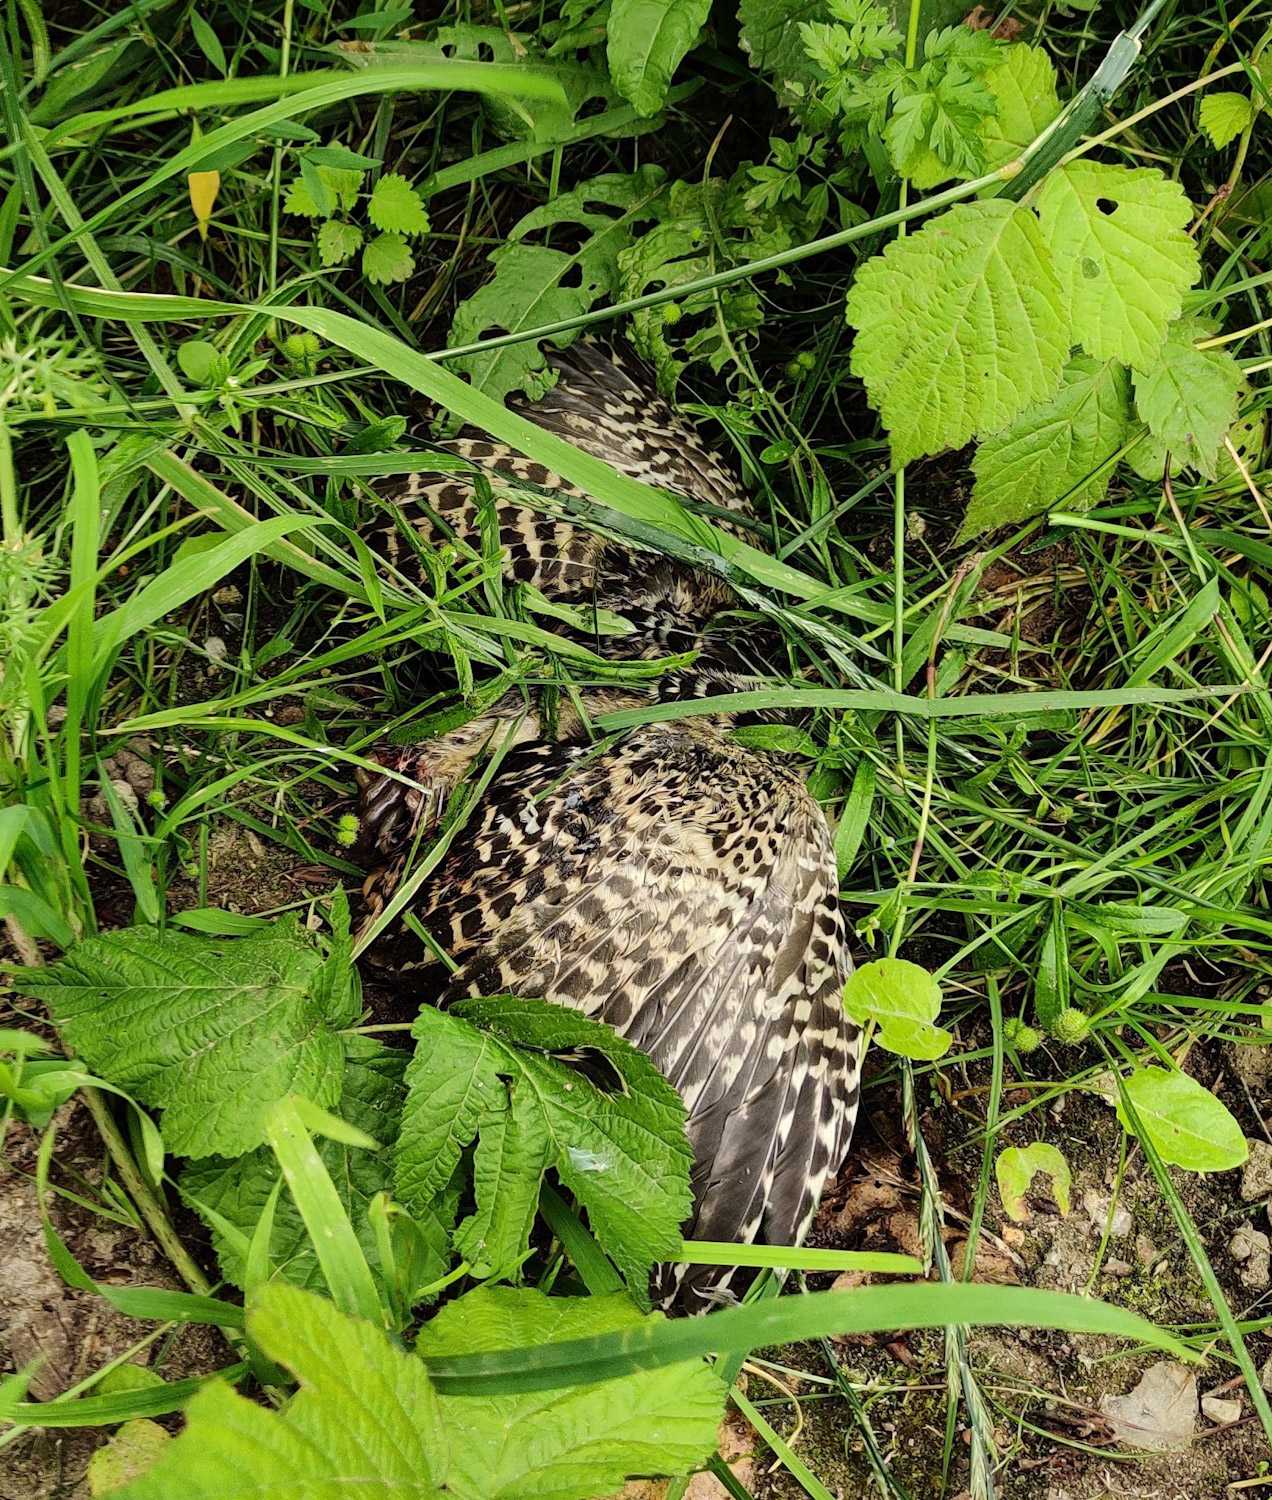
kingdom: Animalia
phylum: Chordata
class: Aves
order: Galliformes
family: Phasianidae
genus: Phasianus
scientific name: Phasianus colchicus
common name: Fasan
